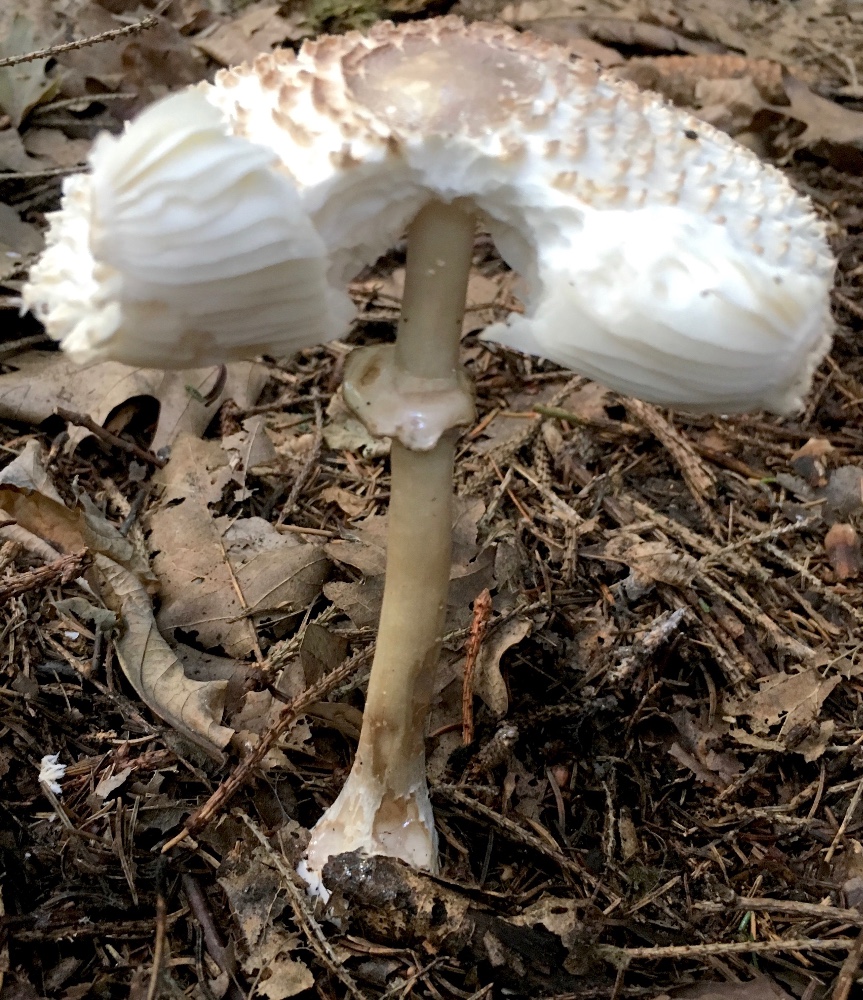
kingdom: Fungi
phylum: Basidiomycota
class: Agaricomycetes
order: Agaricales
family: Agaricaceae
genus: Leucoagaricus
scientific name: Leucoagaricus nympharum
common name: gran-silkehat
